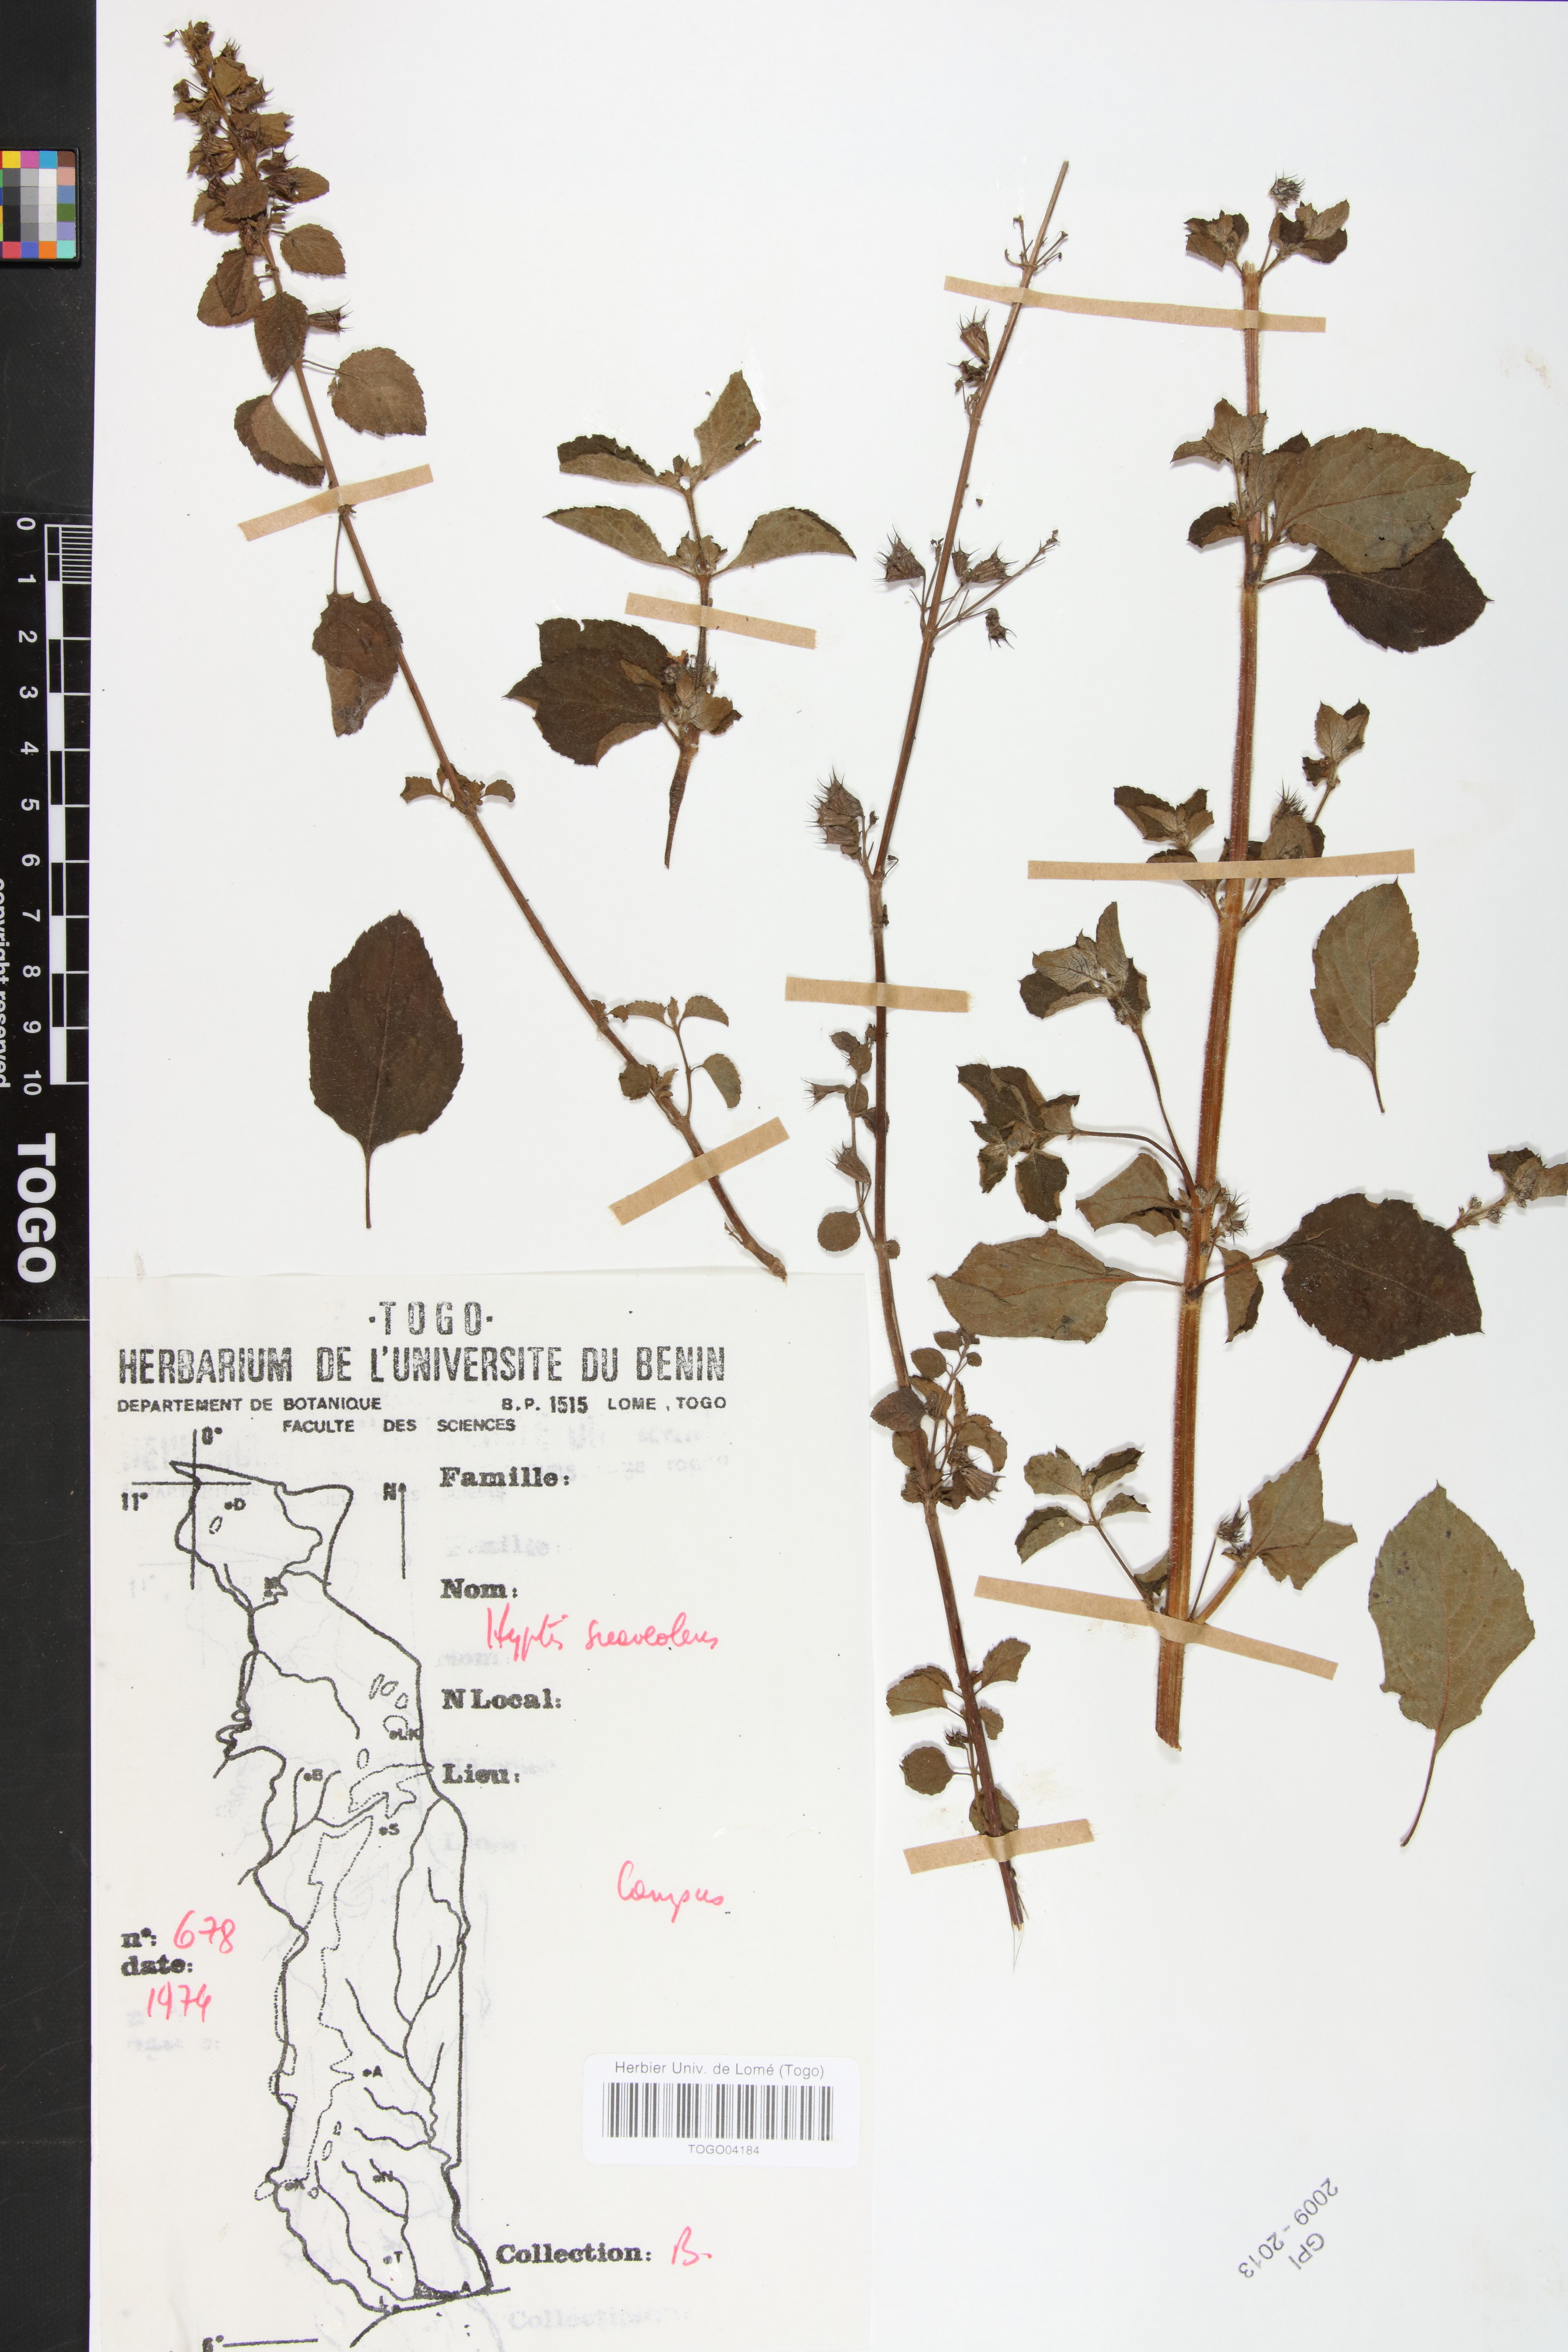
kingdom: Plantae
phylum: Tracheophyta
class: Magnoliopsida
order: Lamiales
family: Lamiaceae
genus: Mesosphaerum
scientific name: Mesosphaerum suaveolens
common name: Pignut
